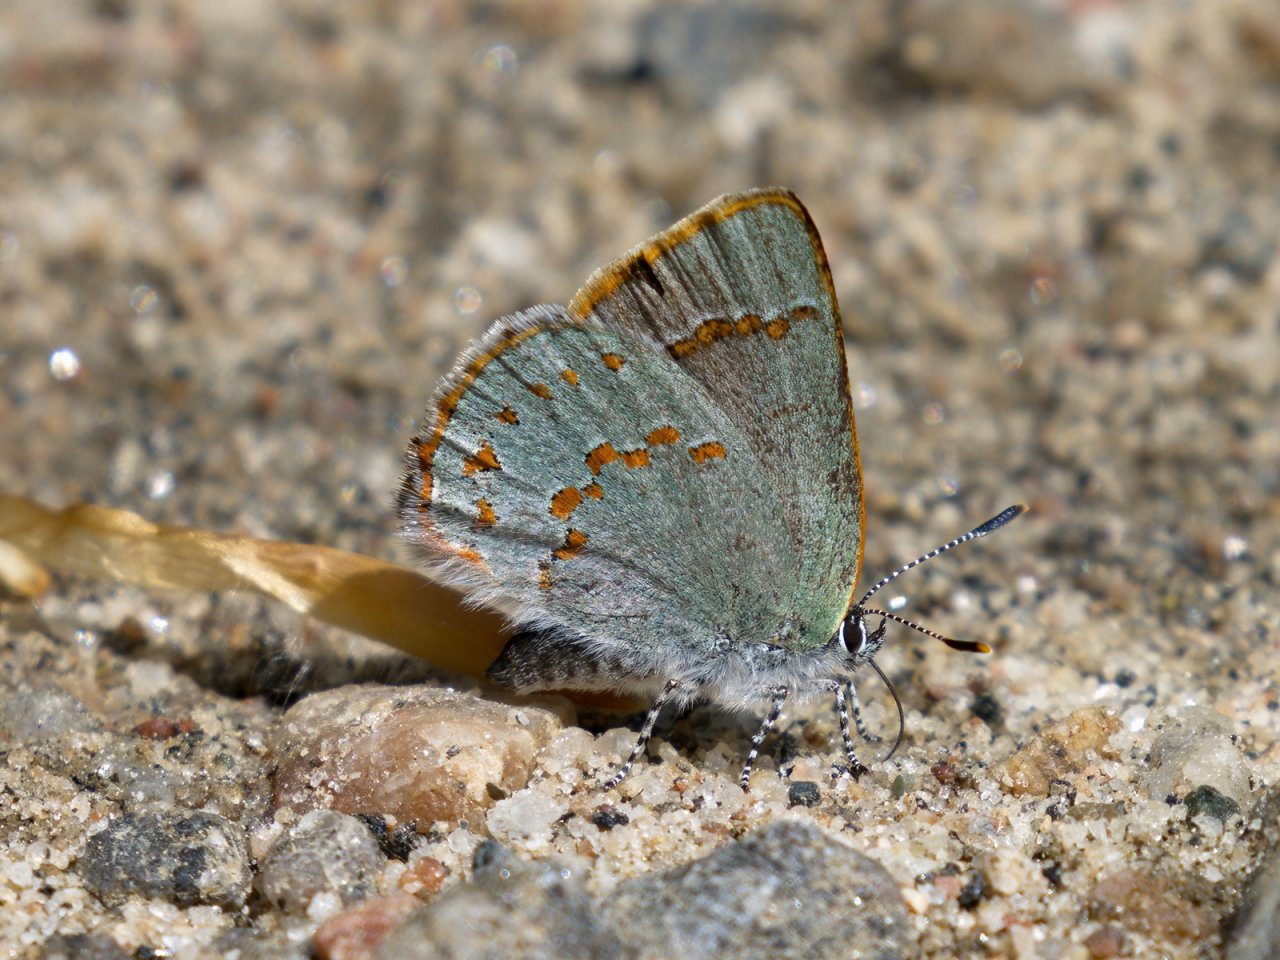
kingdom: Animalia
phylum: Arthropoda
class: Insecta
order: Lepidoptera
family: Lycaenidae
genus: Erora
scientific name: Erora laeta
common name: Early Hairstreak
